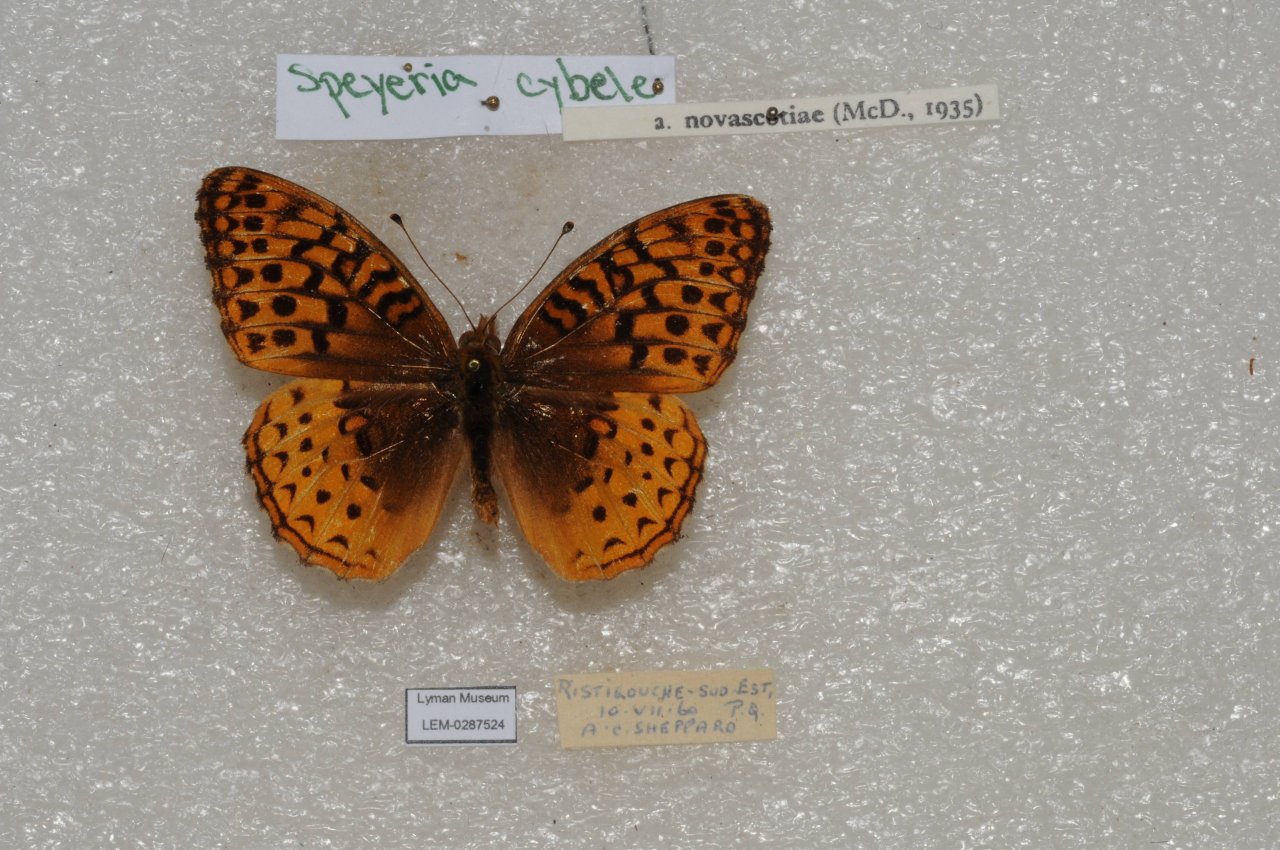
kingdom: Animalia
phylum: Arthropoda
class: Insecta
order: Lepidoptera
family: Nymphalidae
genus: Speyeria
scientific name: Speyeria cybele
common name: Great Spangled Fritillary
